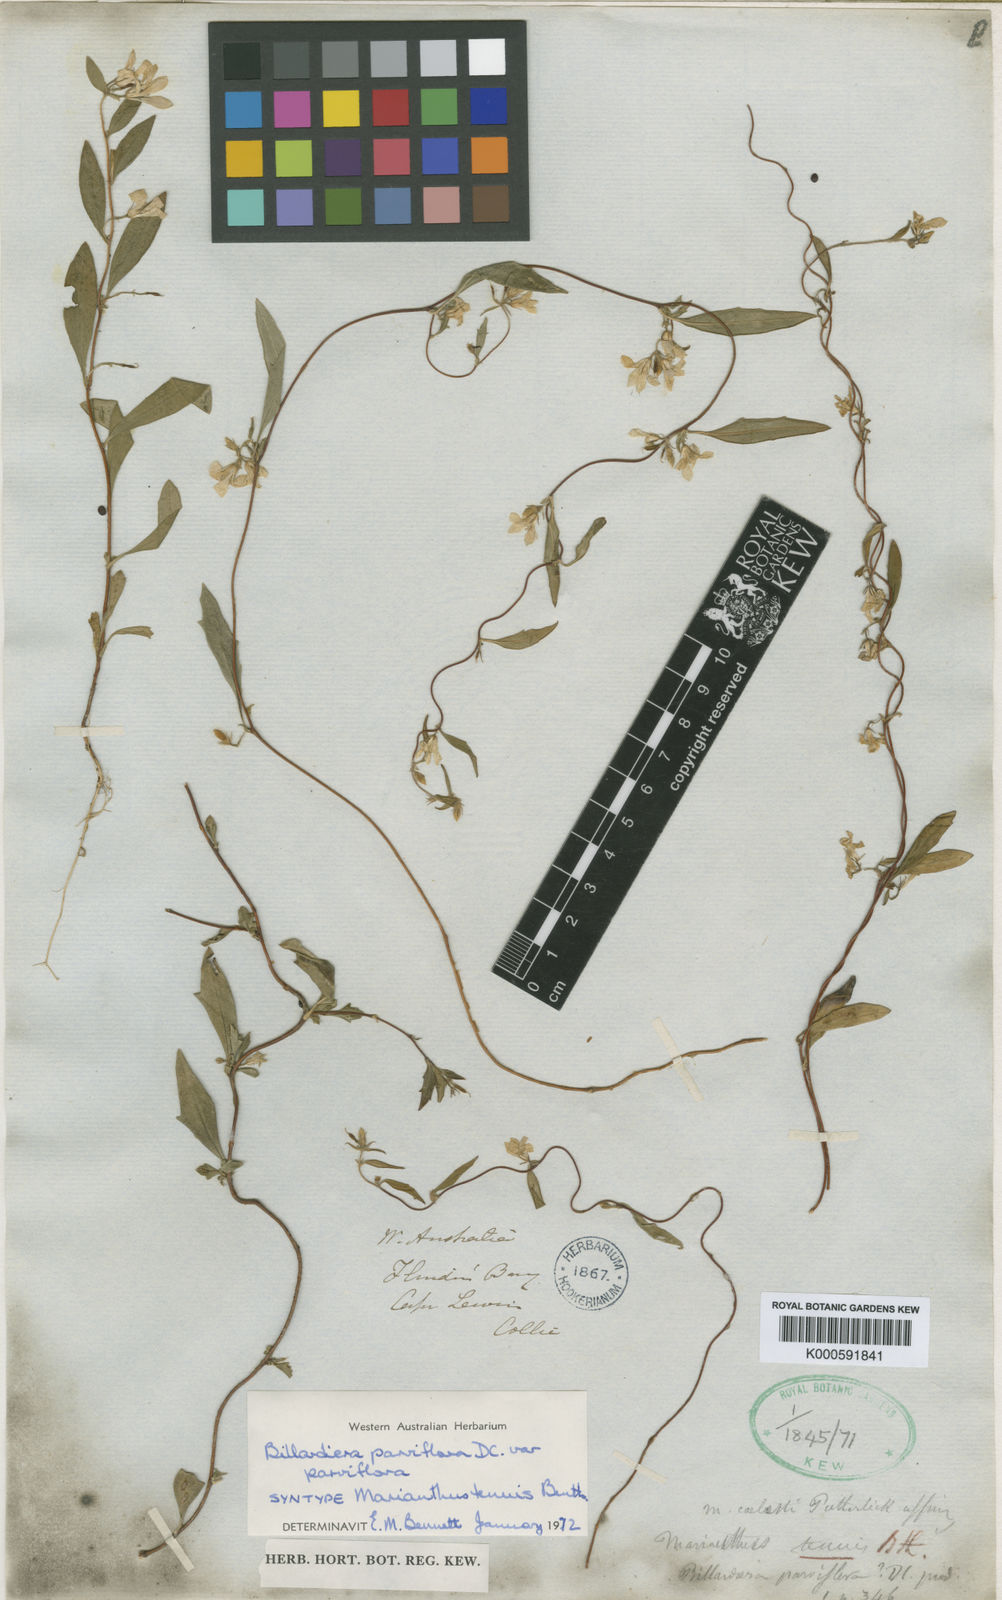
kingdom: Plantae
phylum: Tracheophyta
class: Magnoliopsida
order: Apiales
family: Pittosporaceae
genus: Marianthus
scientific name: Marianthus microphyllus
